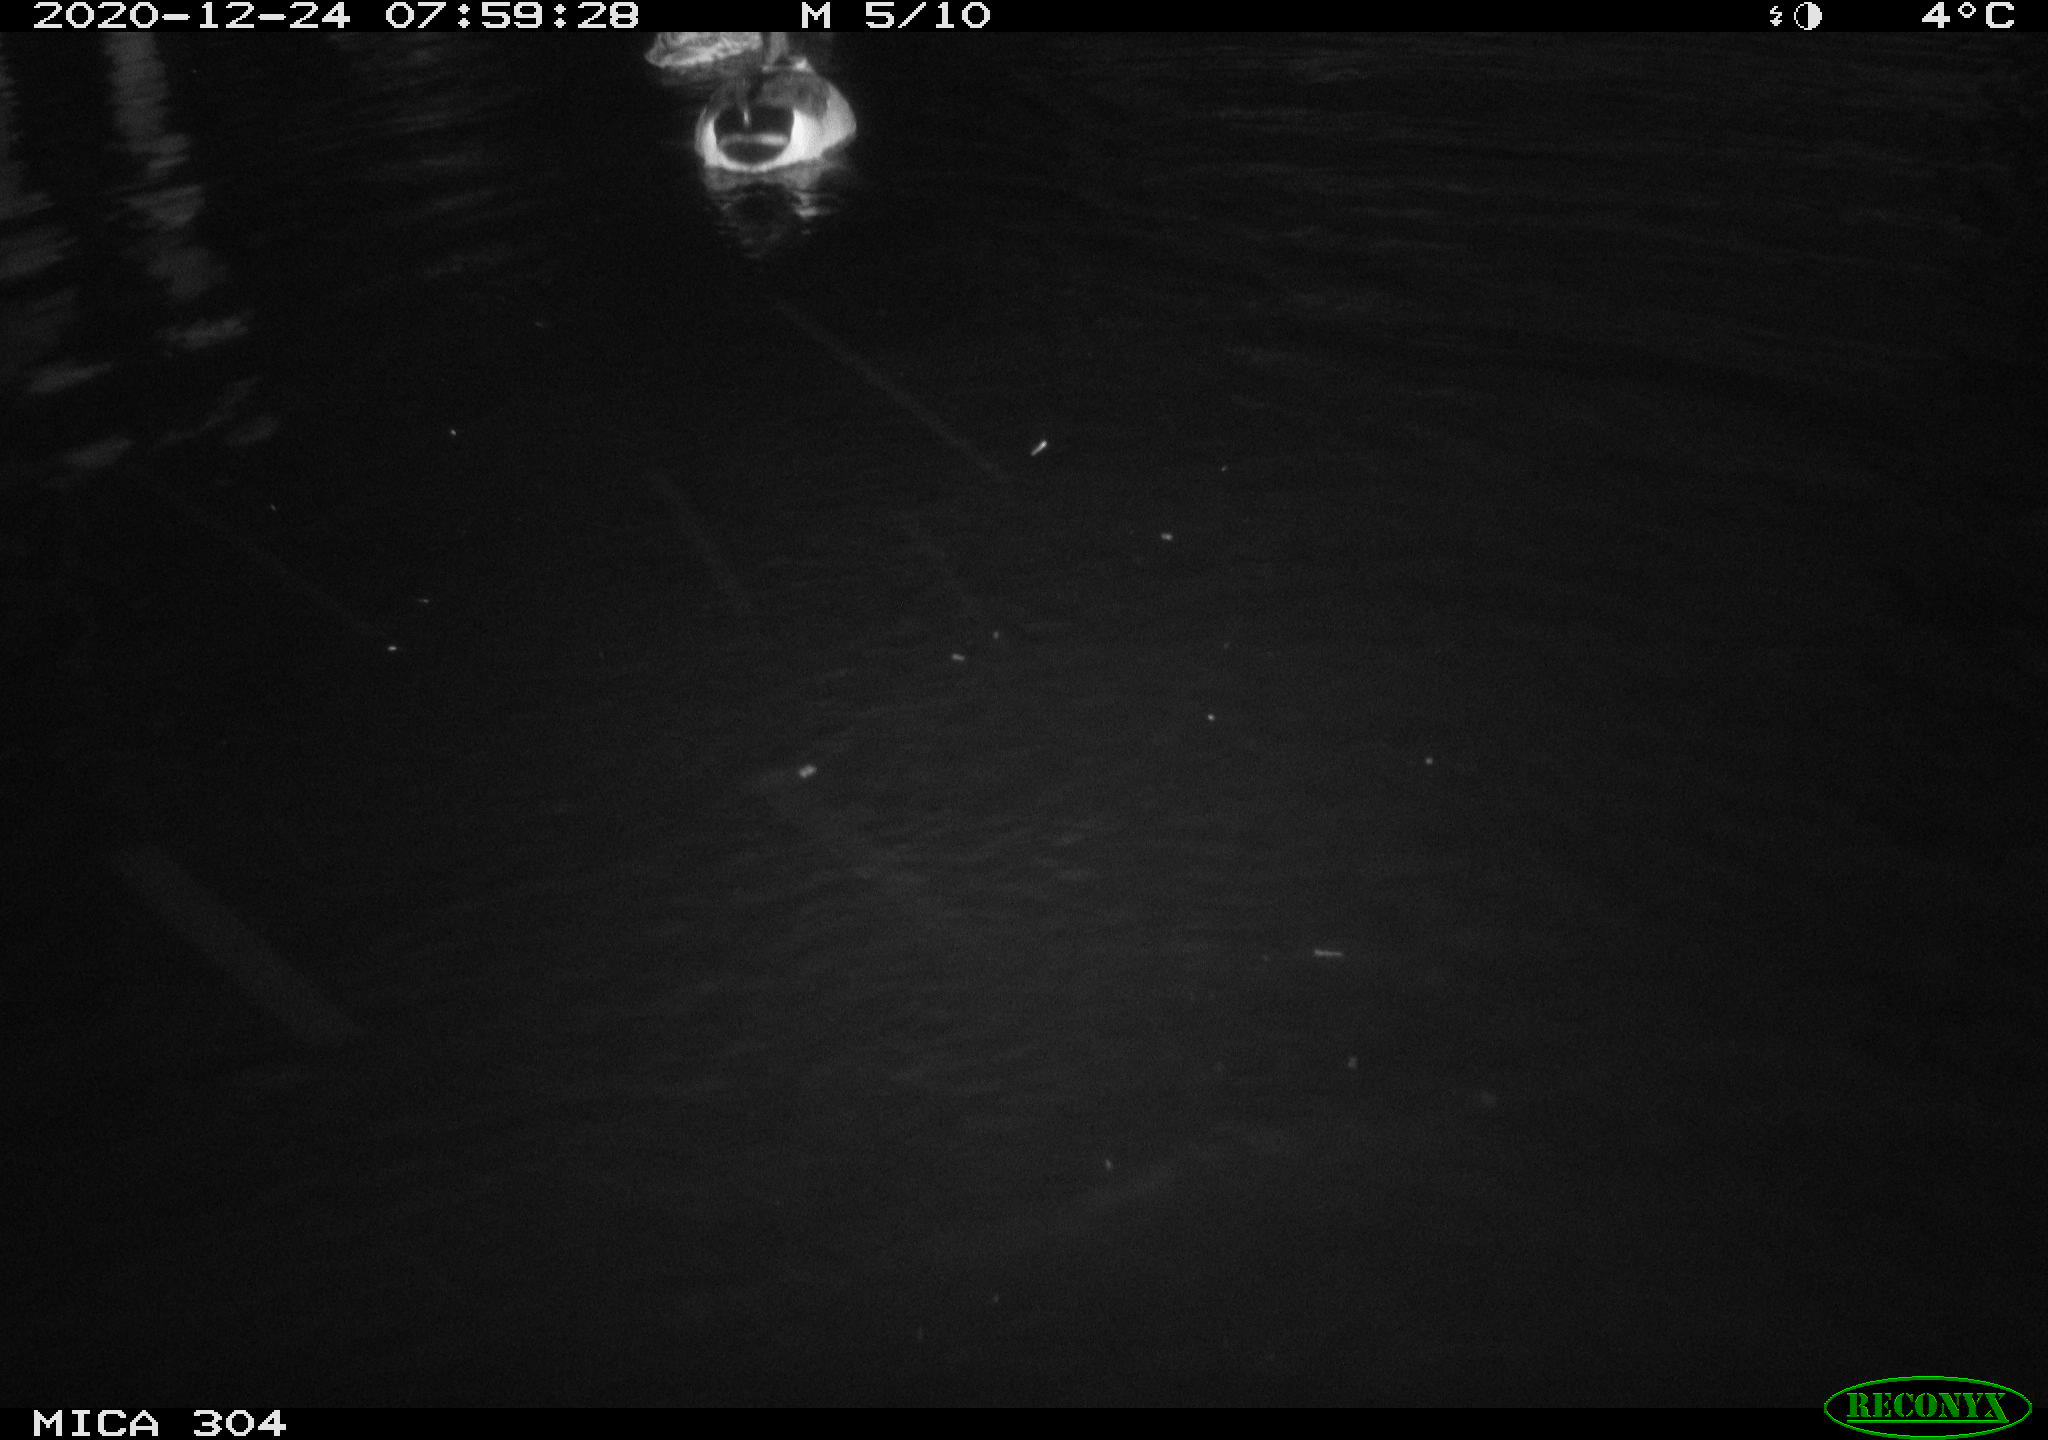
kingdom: Animalia
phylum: Chordata
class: Aves
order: Anseriformes
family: Anatidae
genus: Anas
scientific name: Anas platyrhynchos
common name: Mallard
